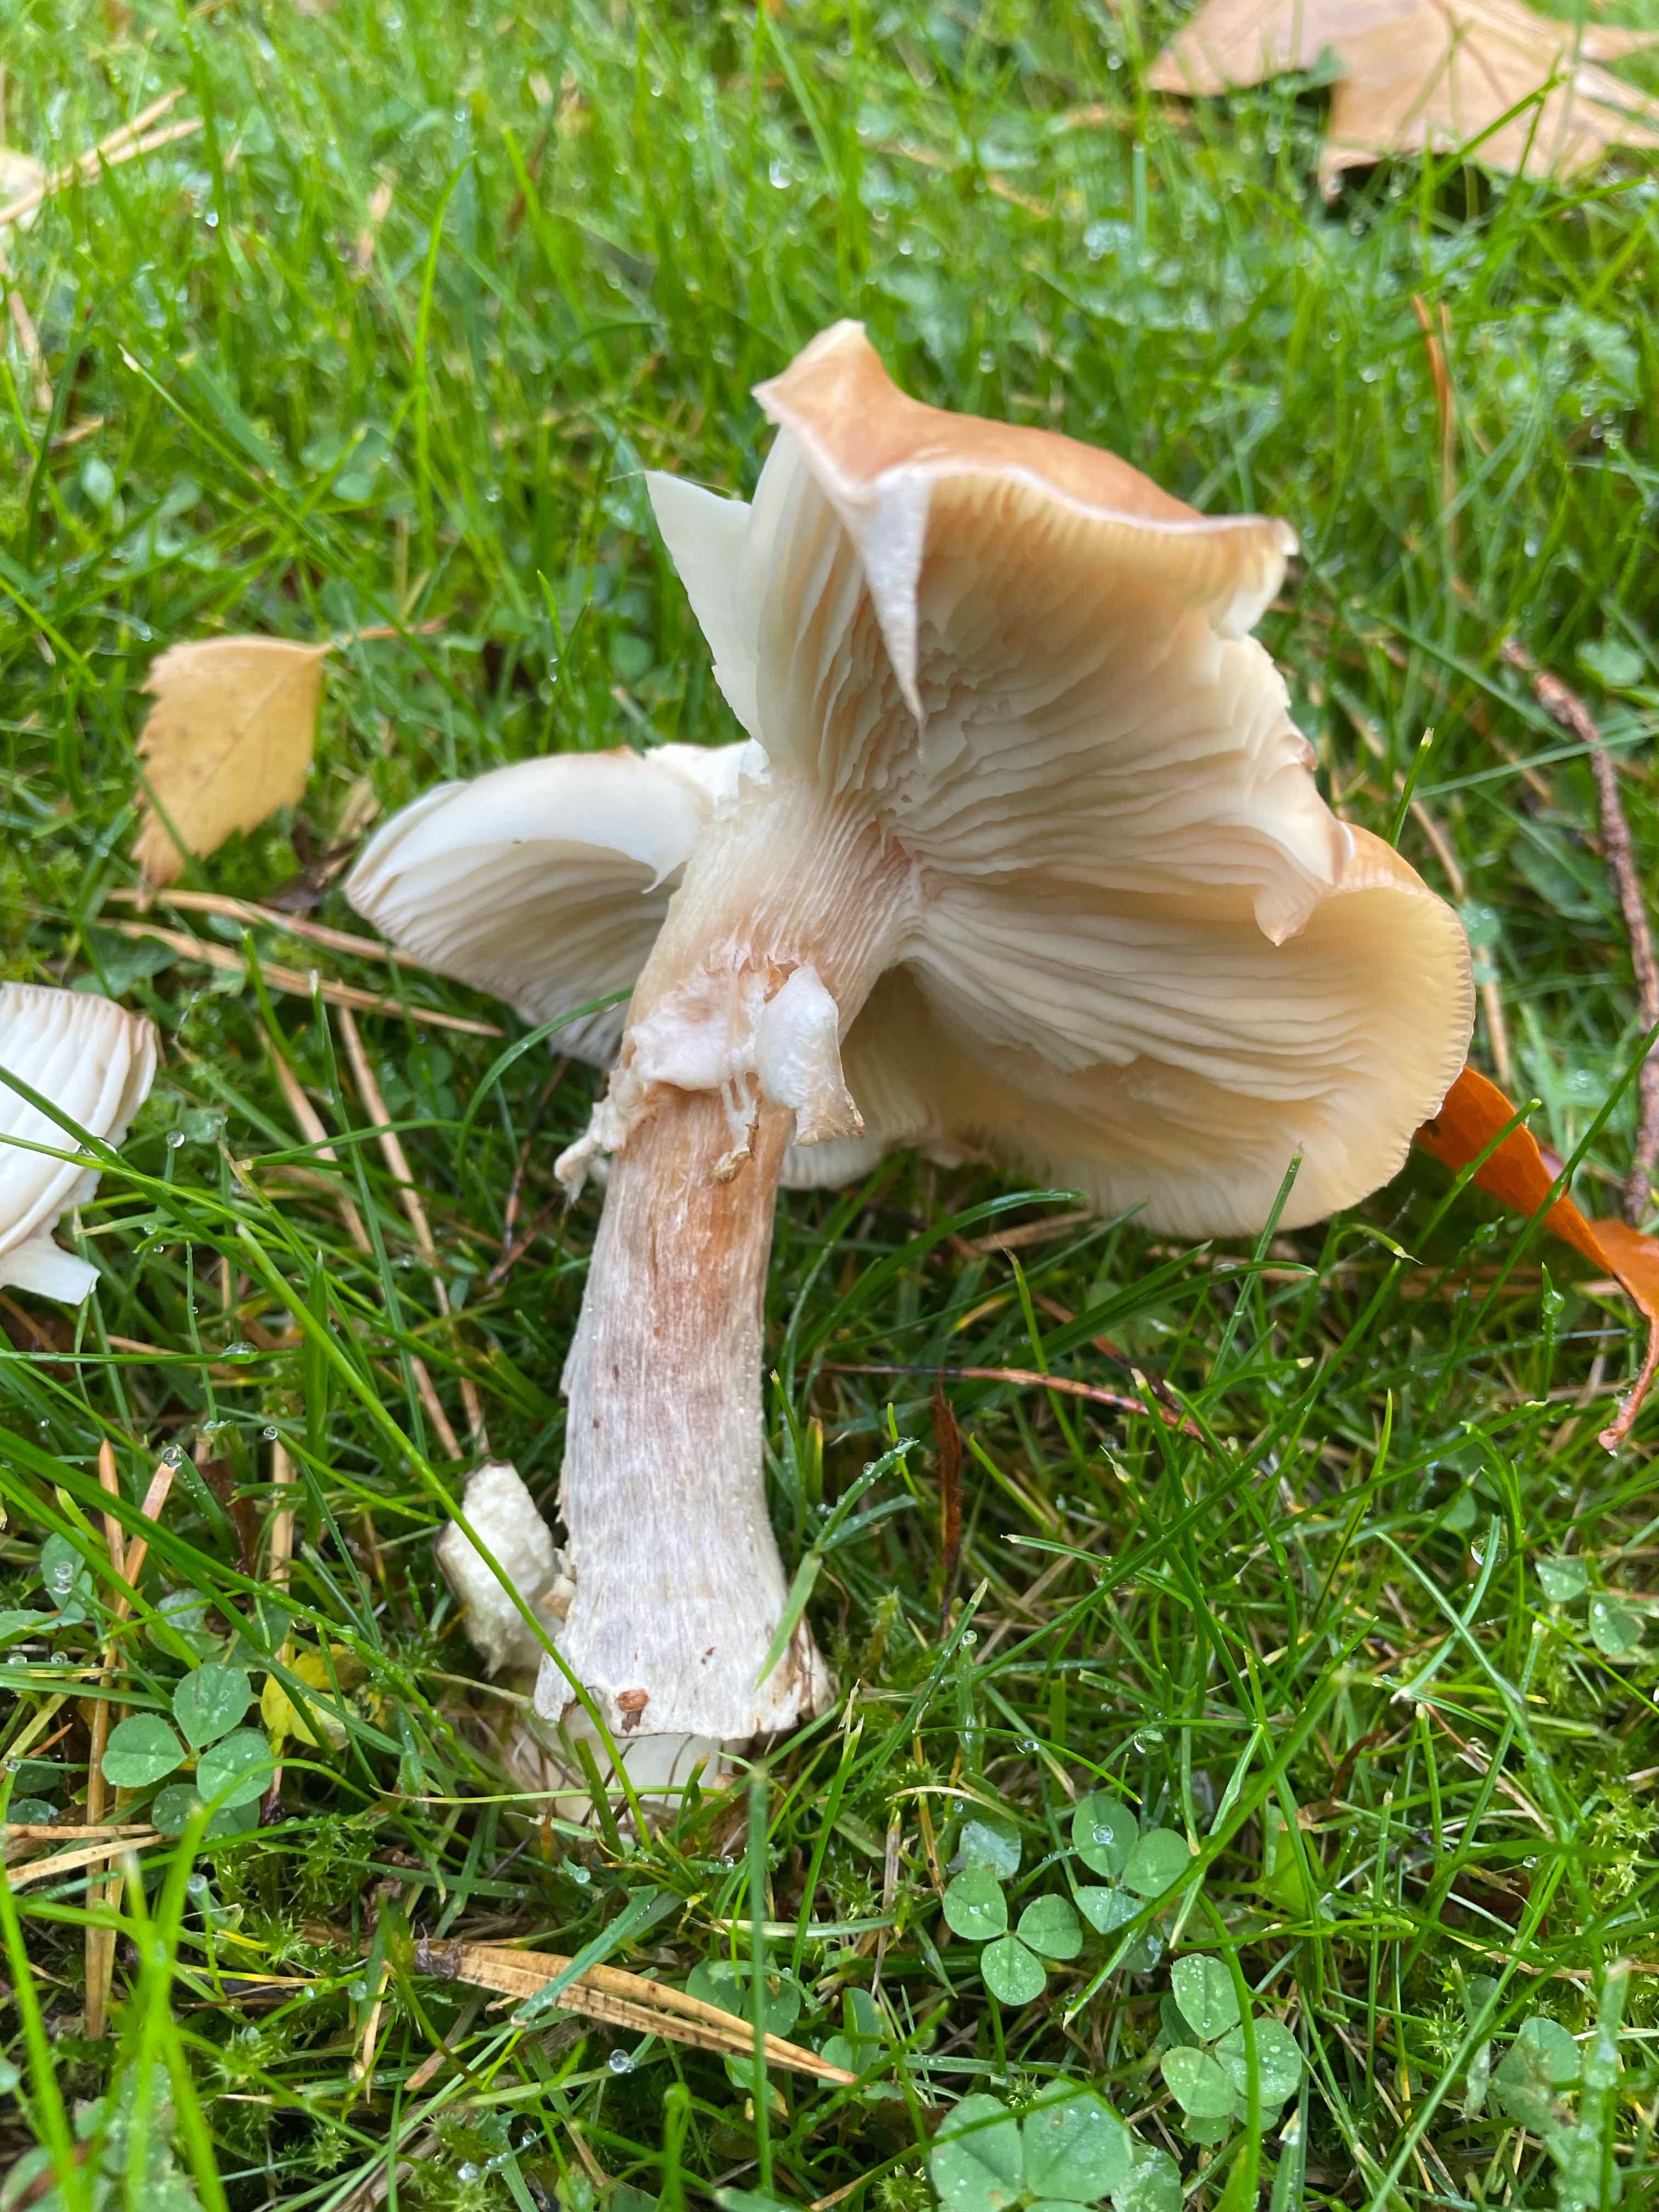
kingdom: Fungi
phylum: Basidiomycota
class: Agaricomycetes
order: Agaricales
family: Physalacriaceae
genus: Armillaria
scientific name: Armillaria
